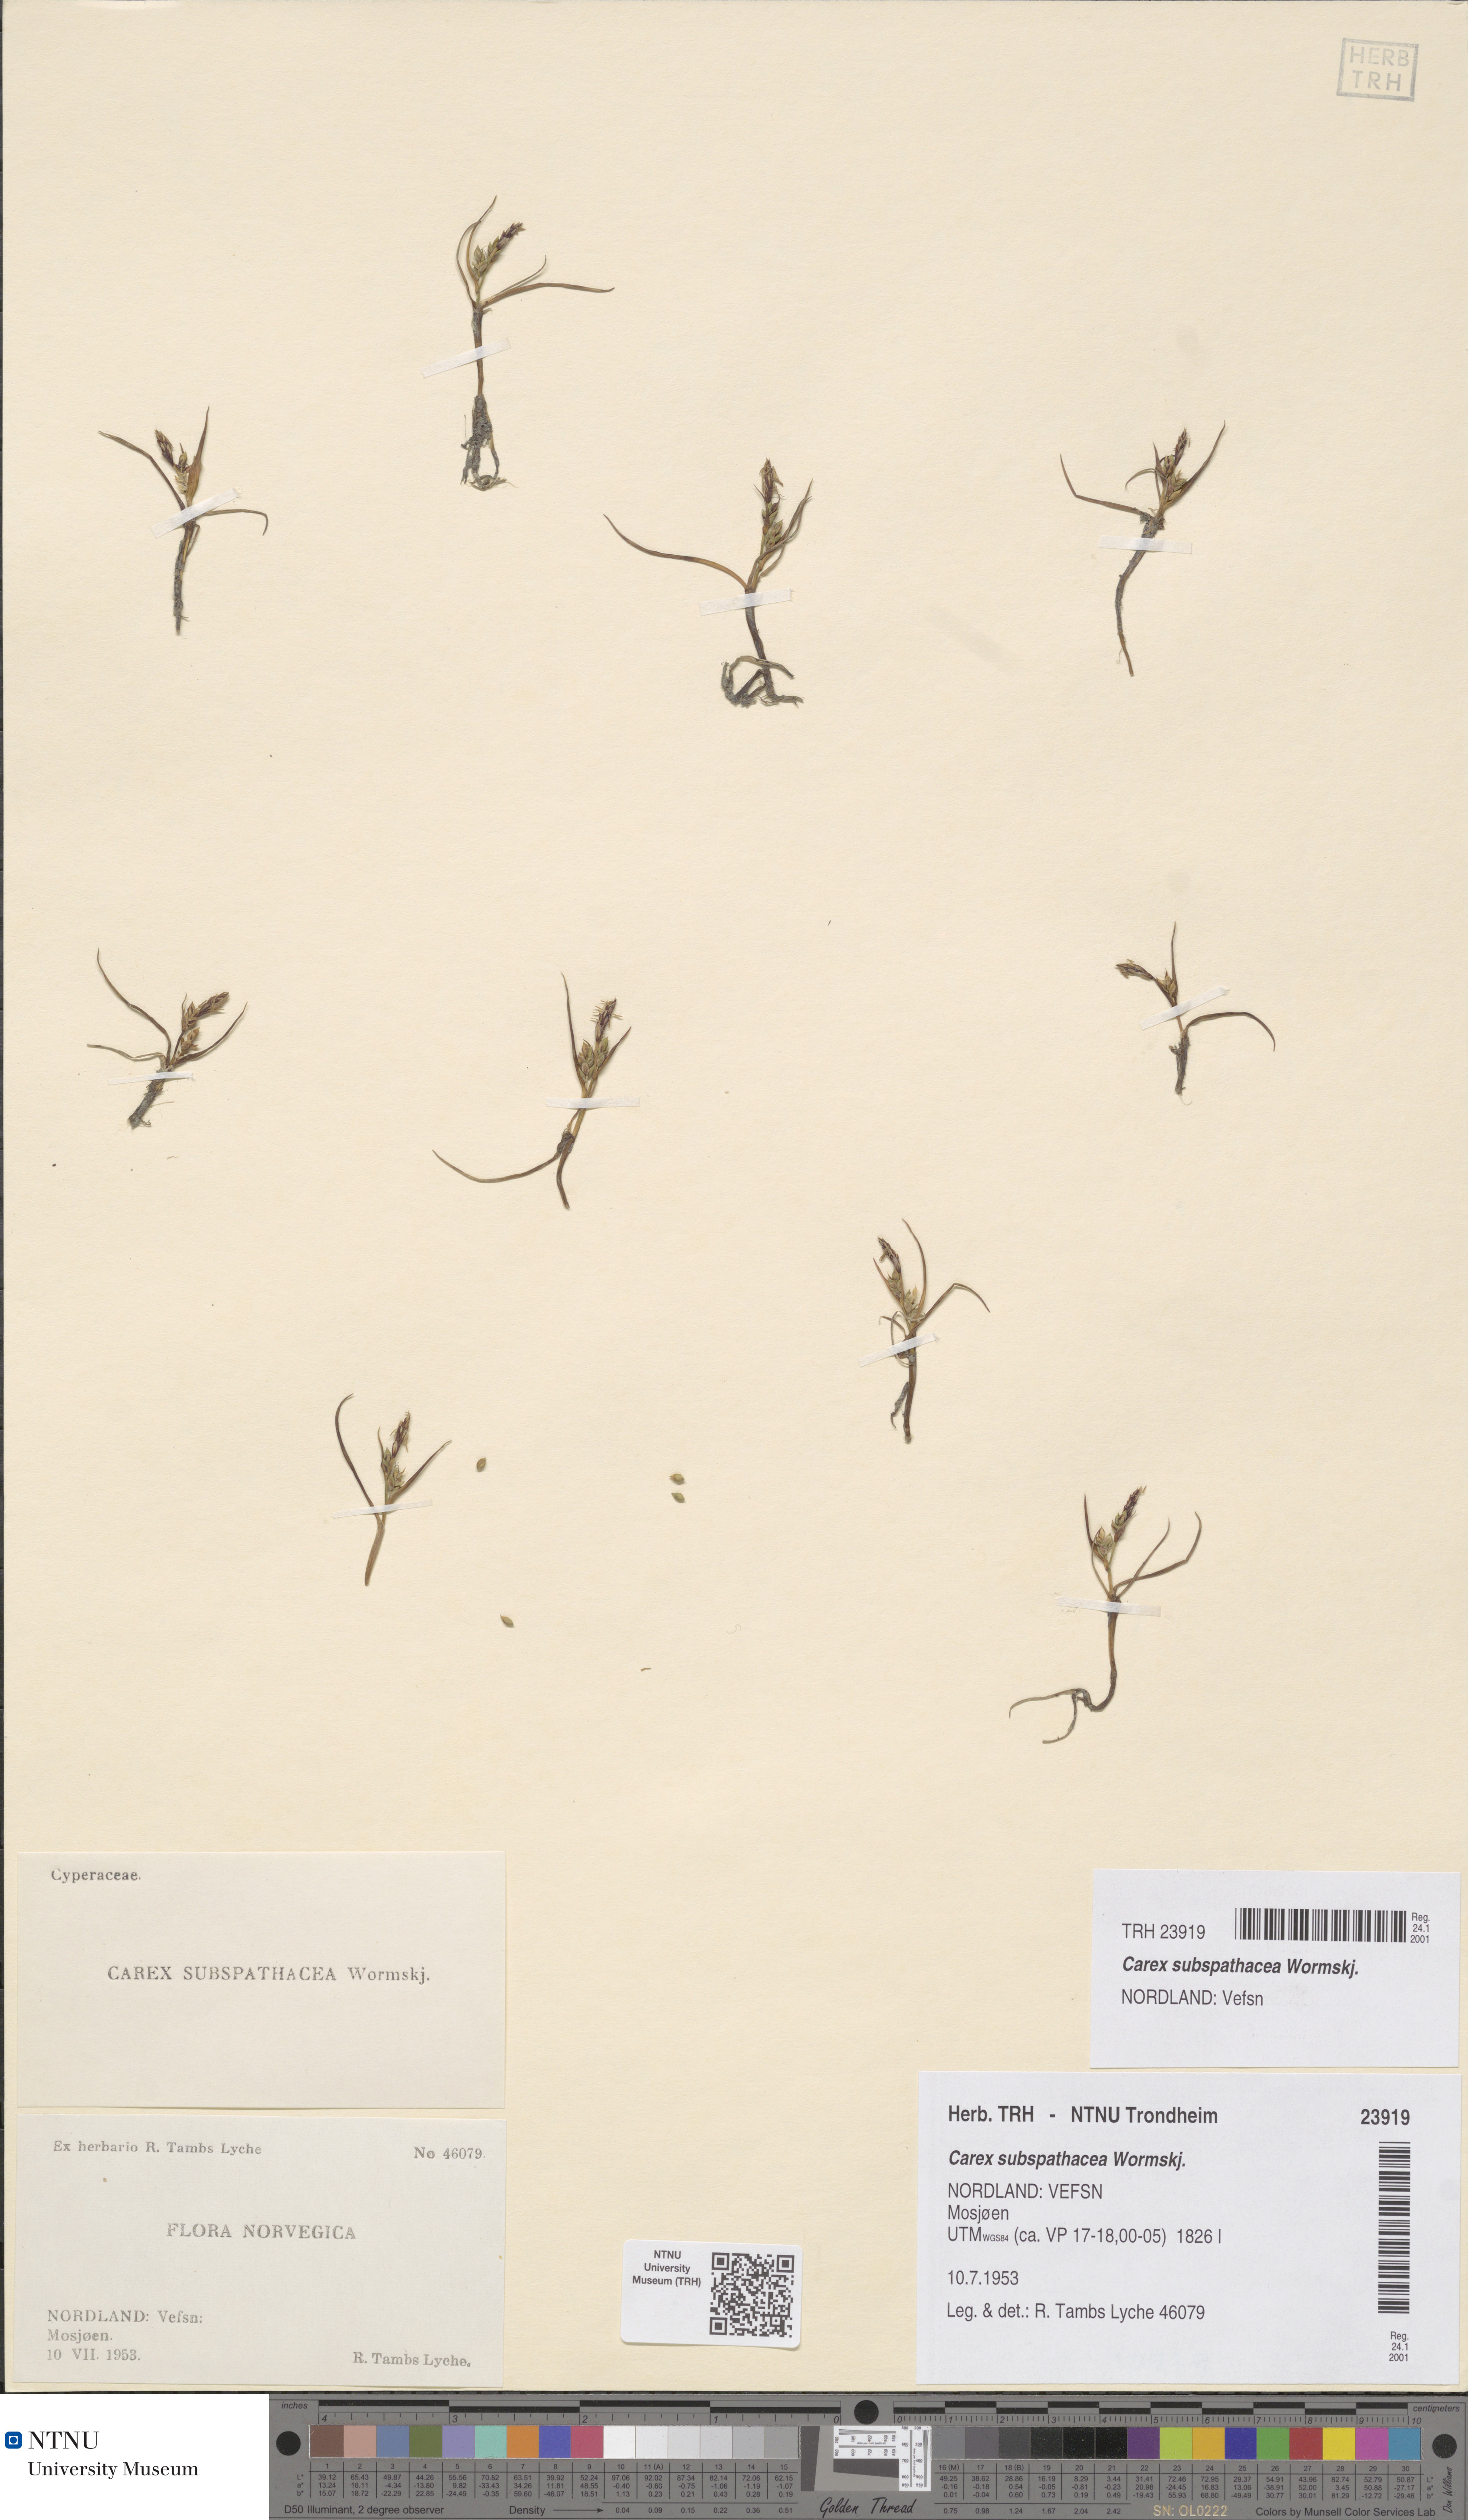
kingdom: Plantae
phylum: Tracheophyta
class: Liliopsida
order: Poales
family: Cyperaceae
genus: Carex
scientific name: Carex subspathacea
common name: Hoppner's sedge
